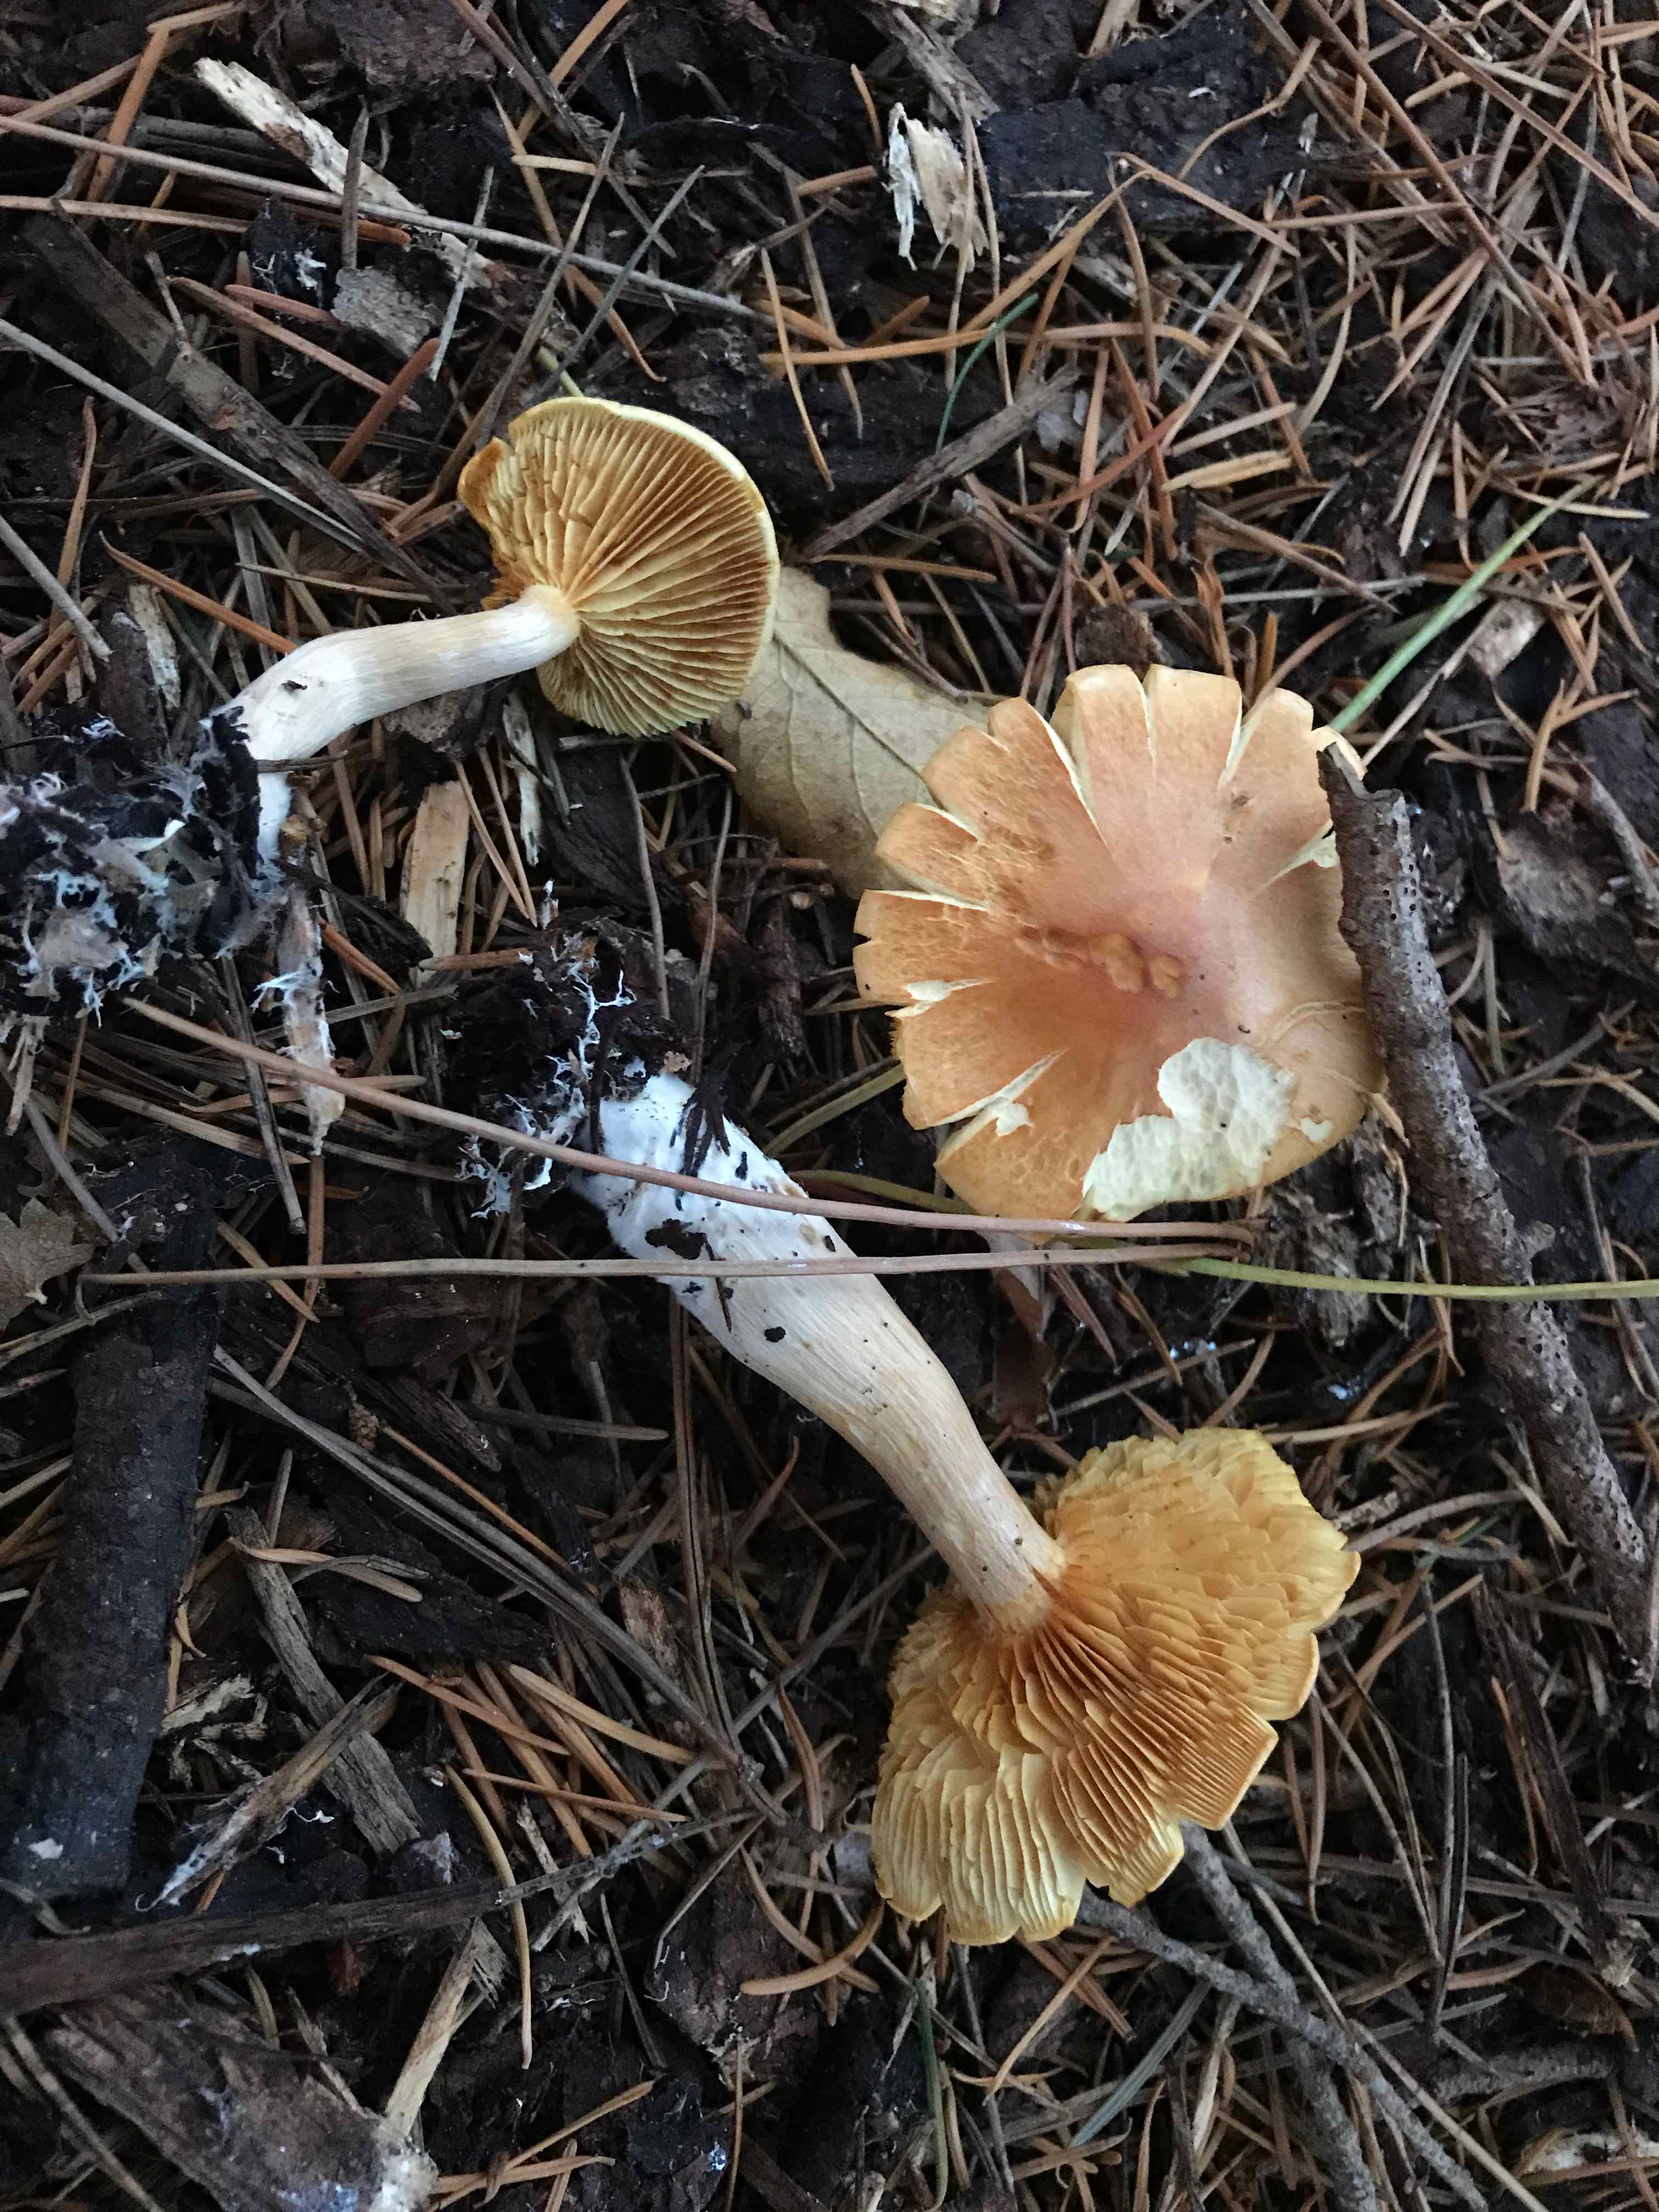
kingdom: Fungi
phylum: Basidiomycota
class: Agaricomycetes
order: Agaricales
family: Hymenogastraceae
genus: Gymnopilus
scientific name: Gymnopilus penetrans
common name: plettet flammehat
